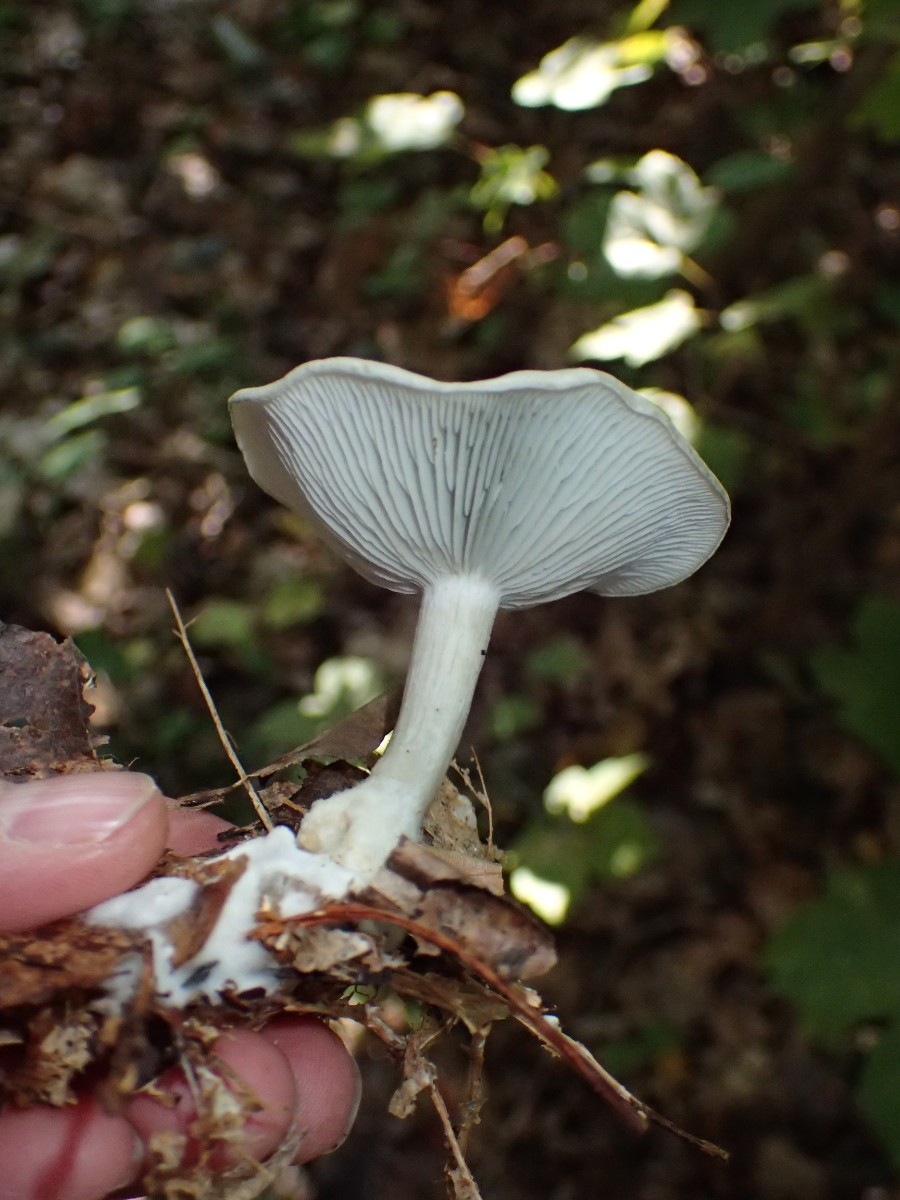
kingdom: Fungi
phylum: Basidiomycota
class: Agaricomycetes
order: Agaricales
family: Tricholomataceae
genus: Clitocybe
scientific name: Clitocybe odora
